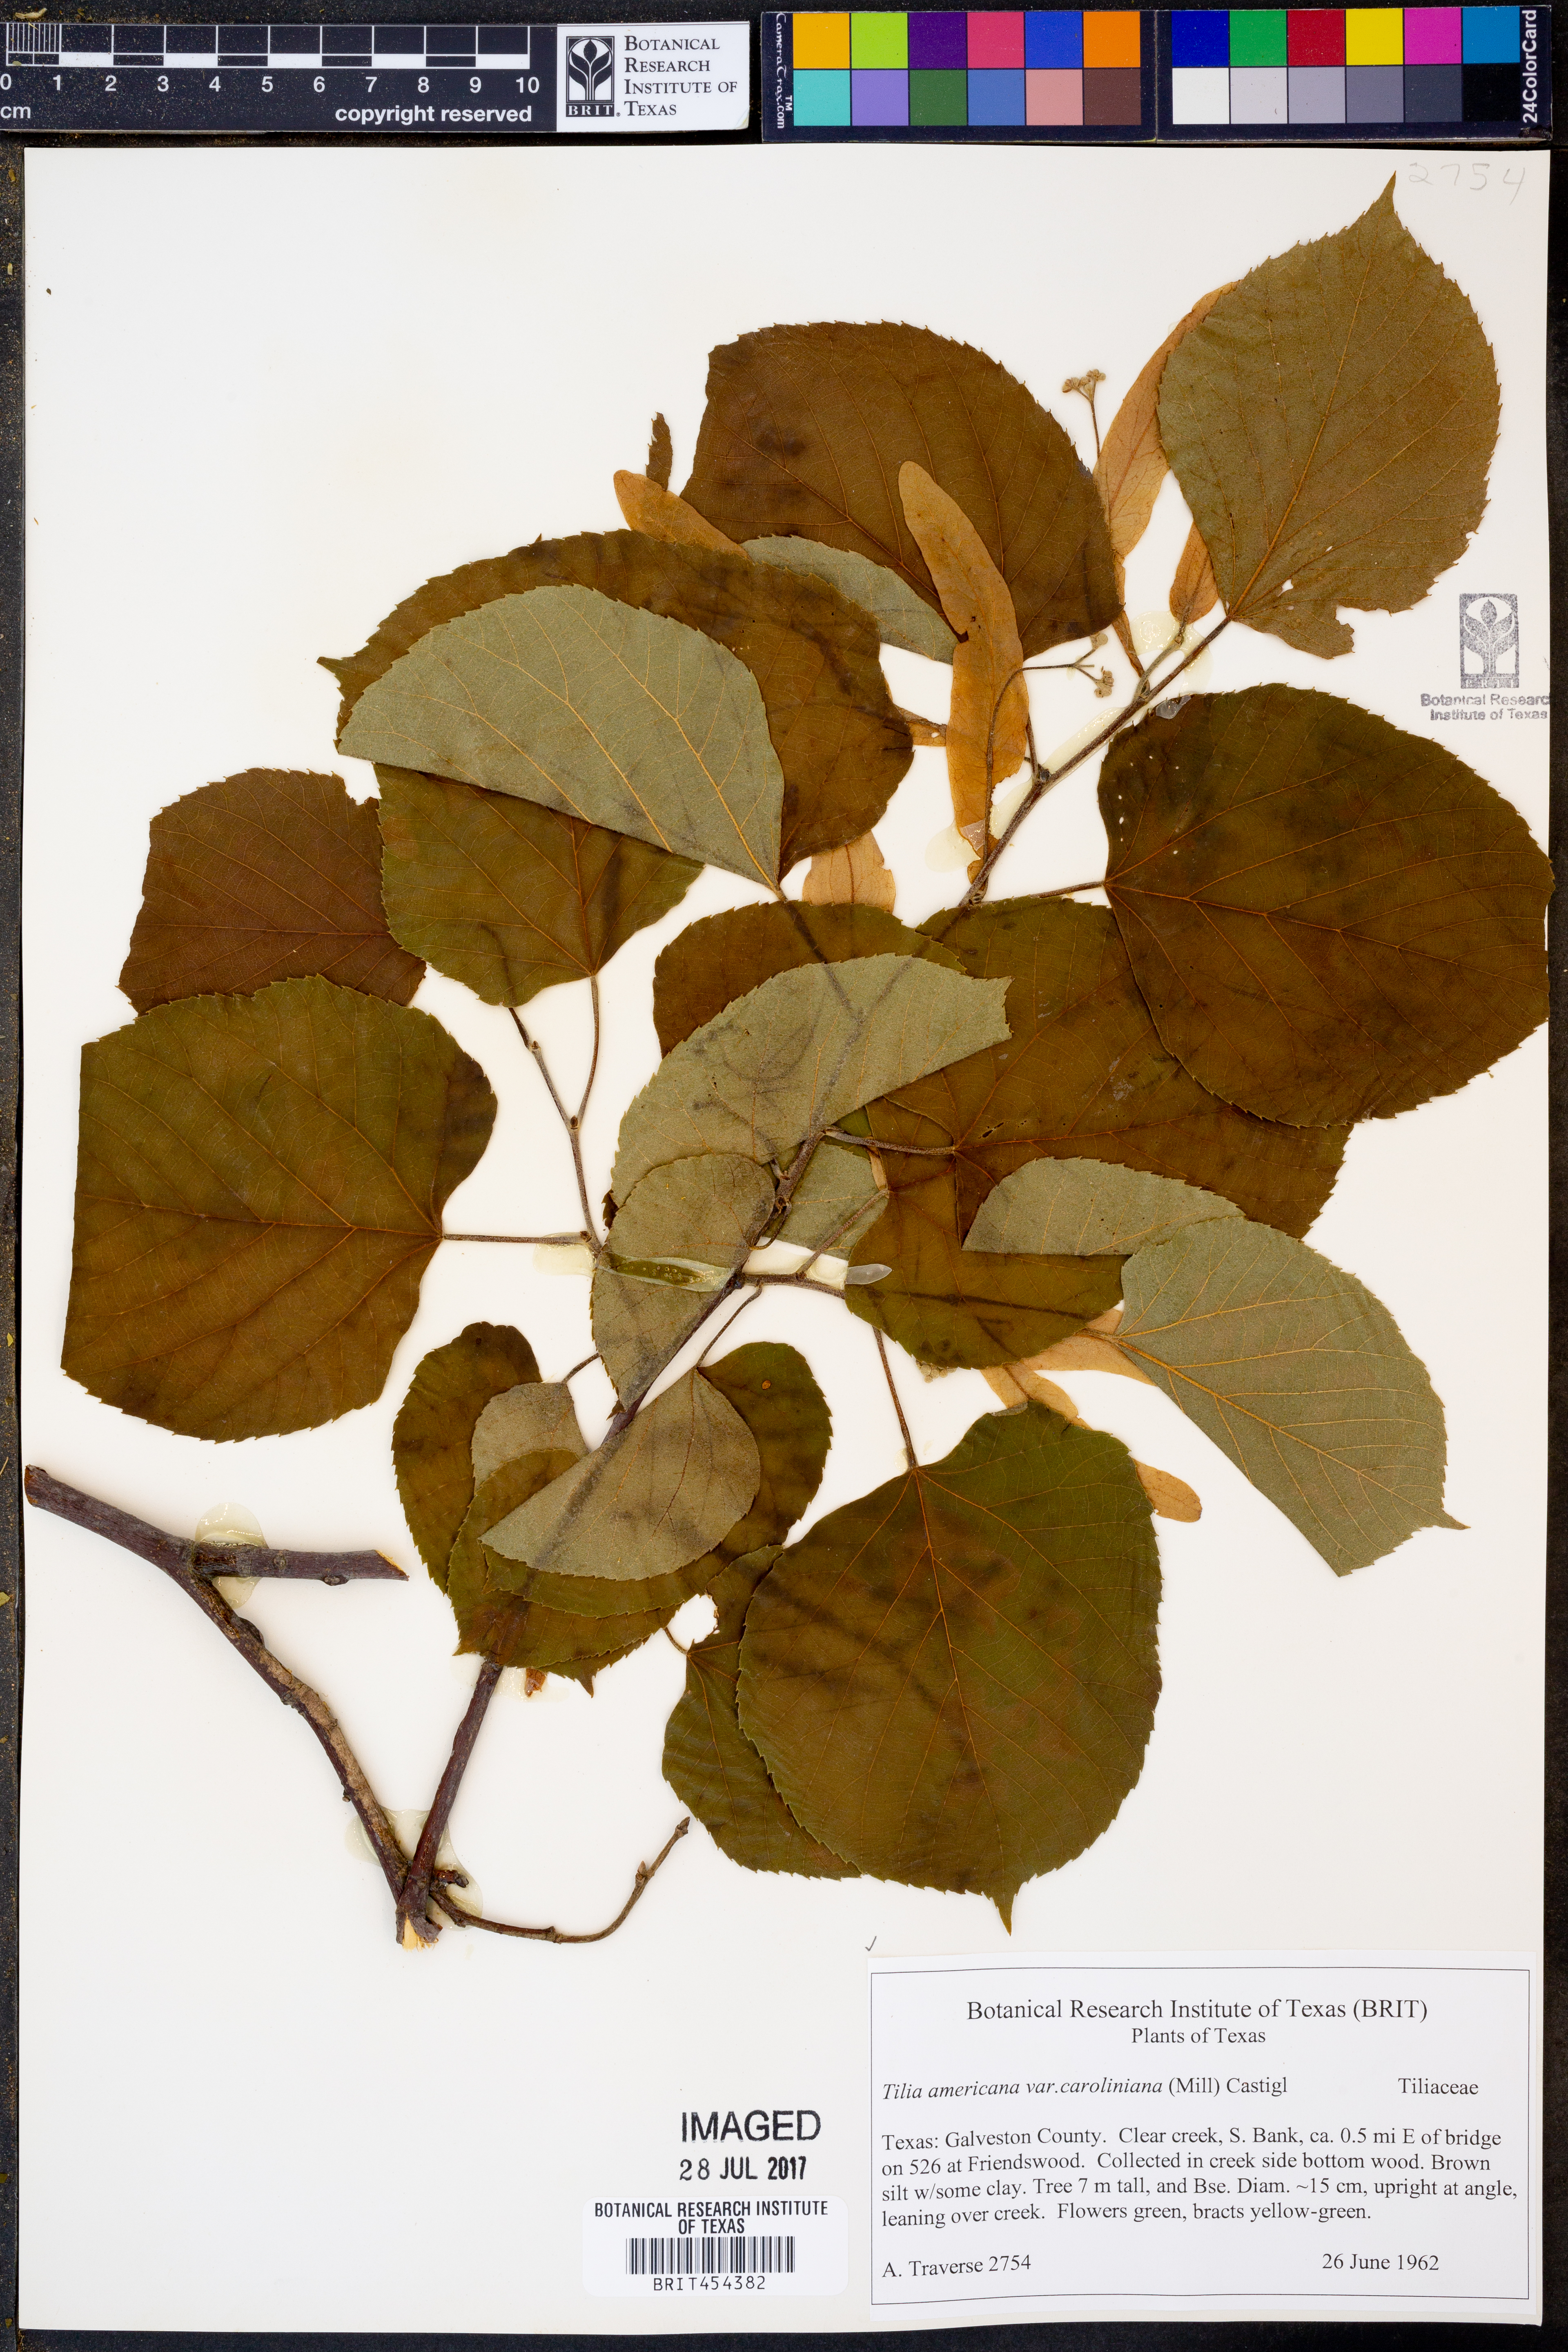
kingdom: Plantae
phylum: Tracheophyta
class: Magnoliopsida
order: Malvales
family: Malvaceae
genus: Tilia
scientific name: Tilia americana
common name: Basswood
